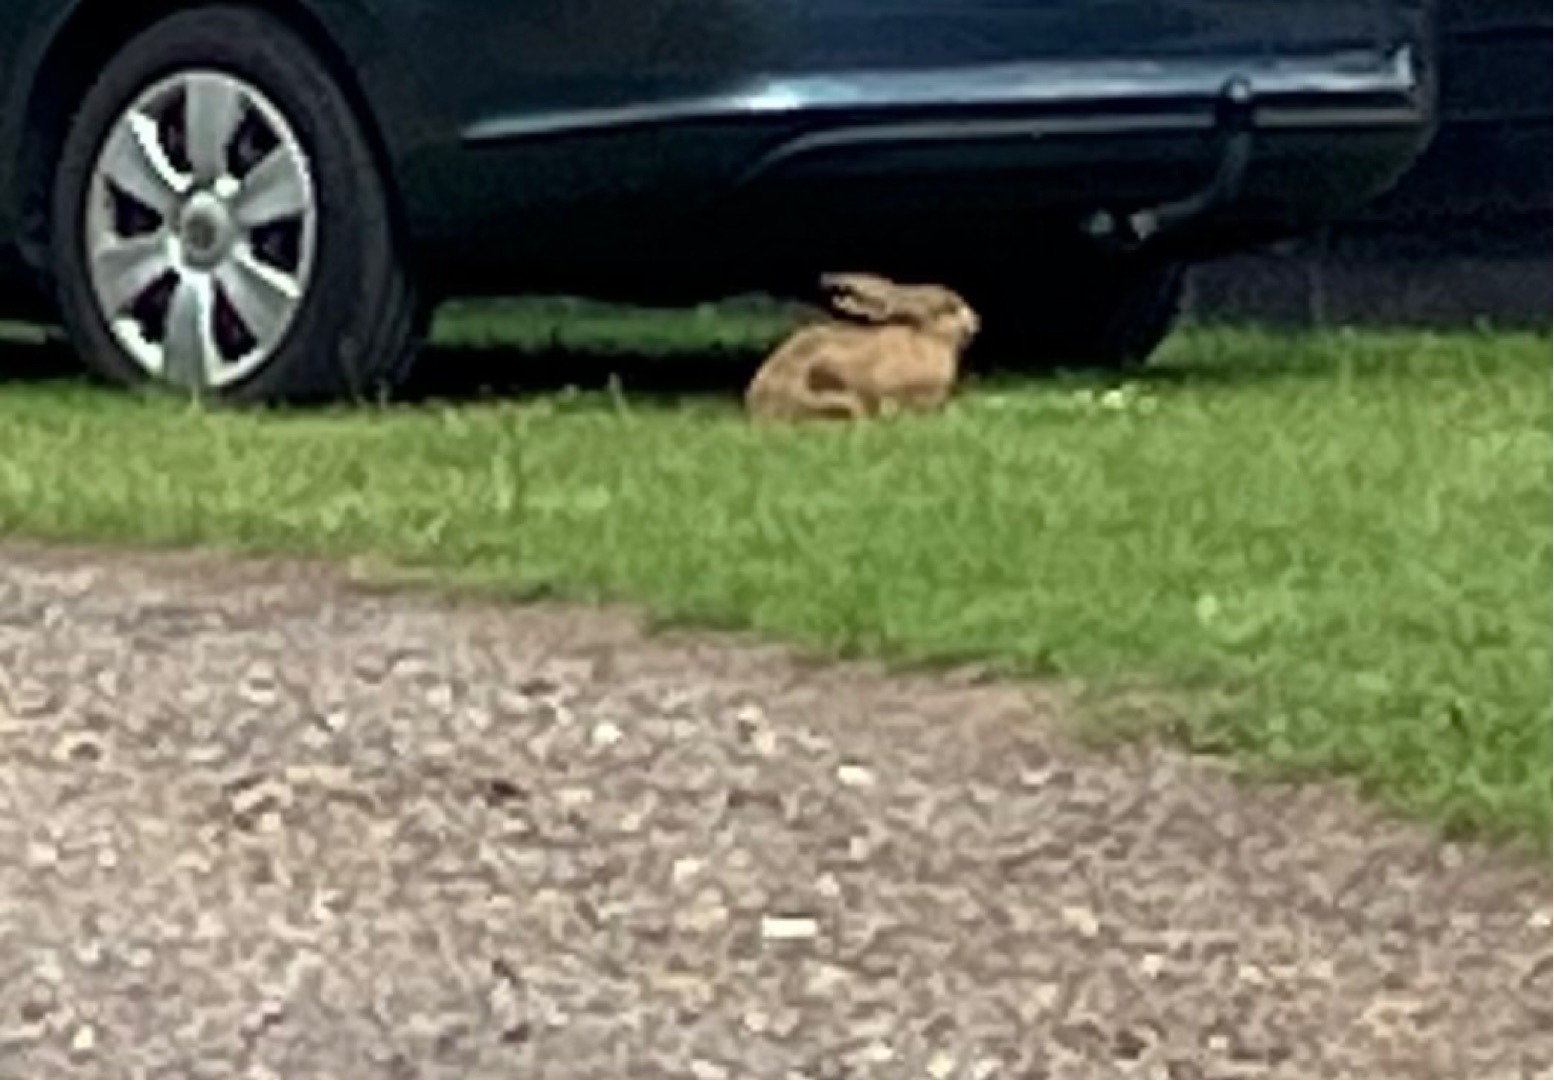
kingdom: Animalia
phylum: Chordata
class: Mammalia
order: Lagomorpha
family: Leporidae
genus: Lepus
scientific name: Lepus europaeus
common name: Hare
